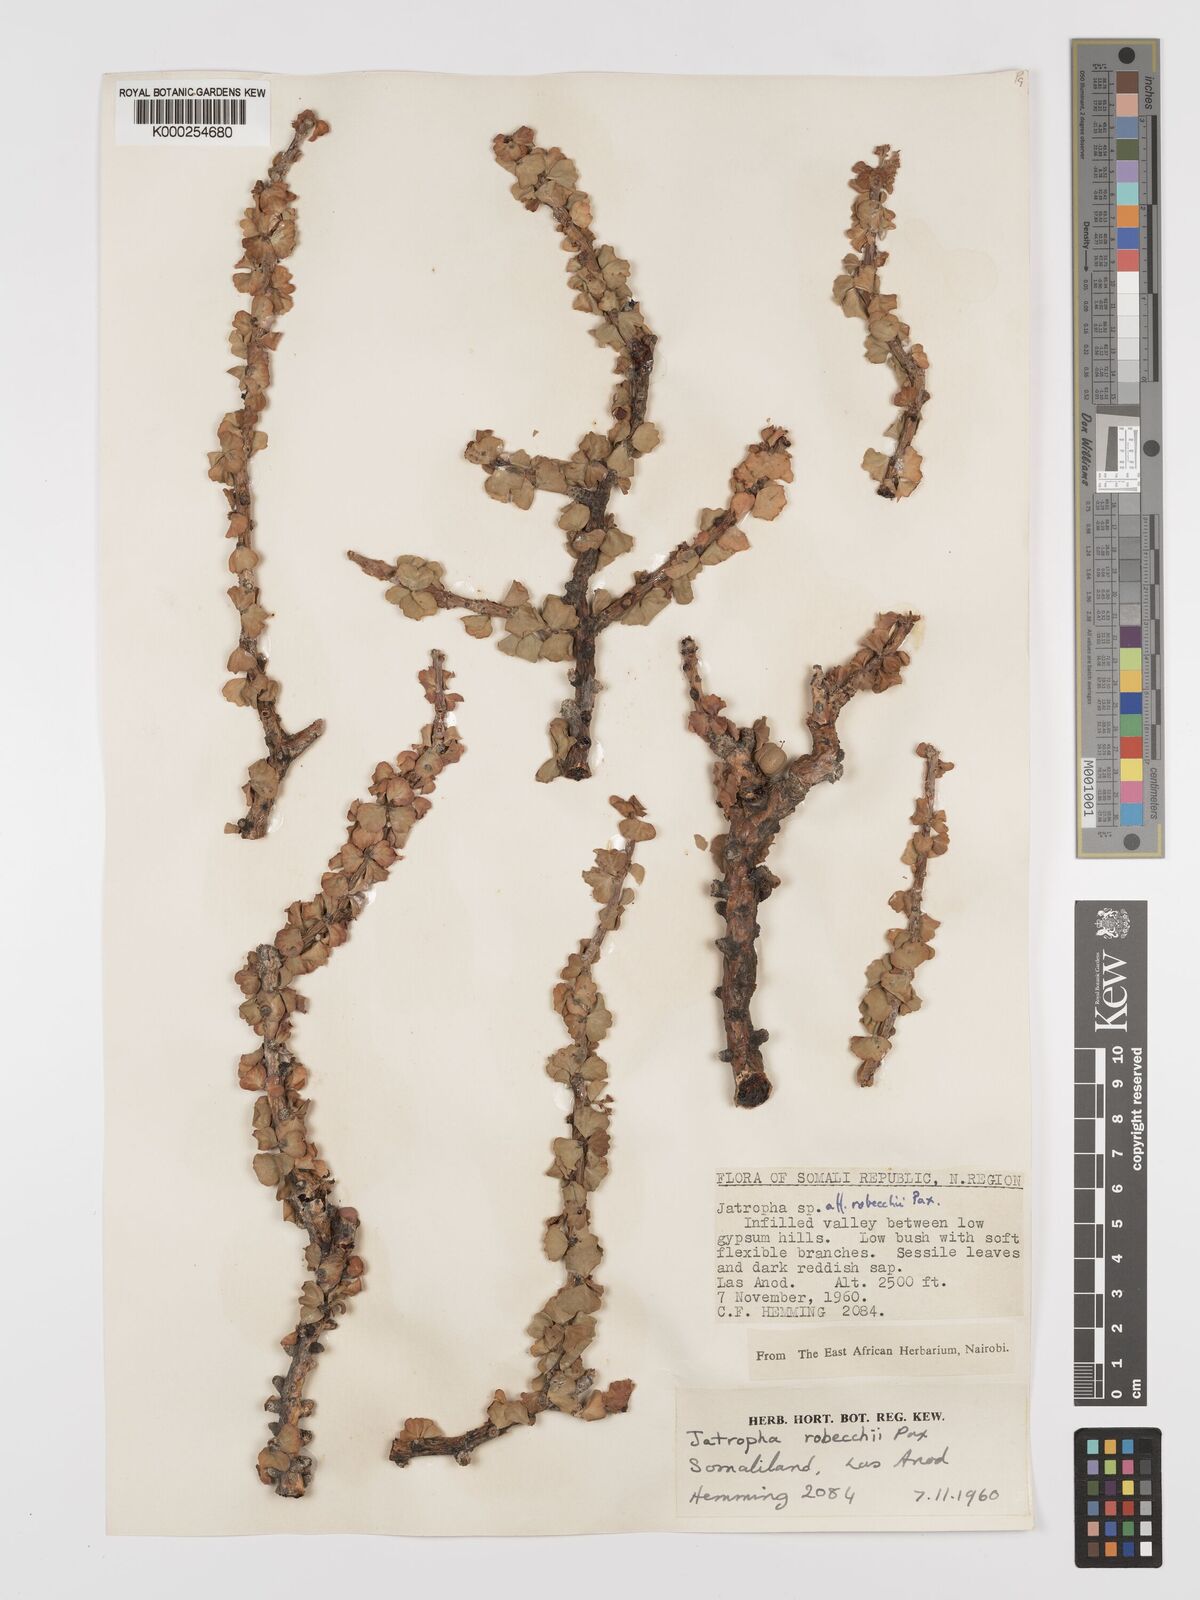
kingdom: Plantae
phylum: Tracheophyta
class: Magnoliopsida
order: Malpighiales
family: Euphorbiaceae
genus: Jatropha
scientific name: Jatropha robecchii
